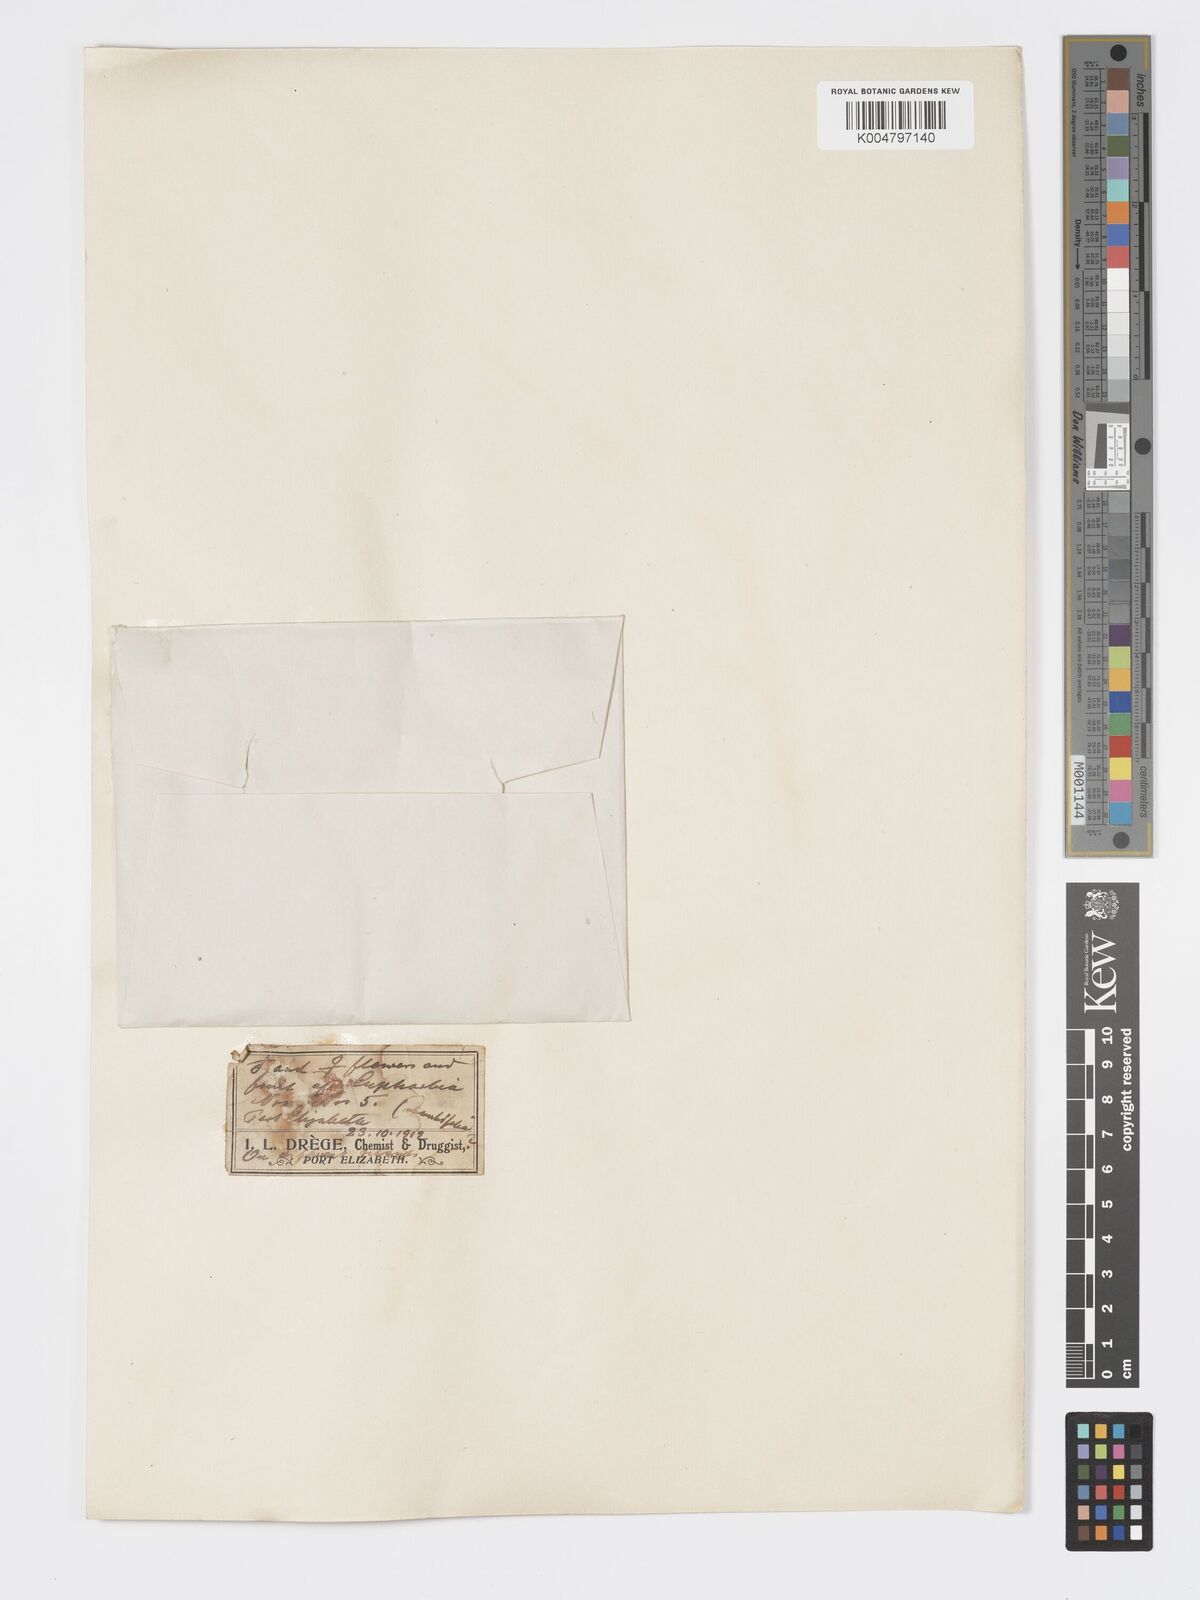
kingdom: Plantae
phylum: Tracheophyta
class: Magnoliopsida
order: Malpighiales
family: Euphorbiaceae
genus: Euphorbia
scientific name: Euphorbia
